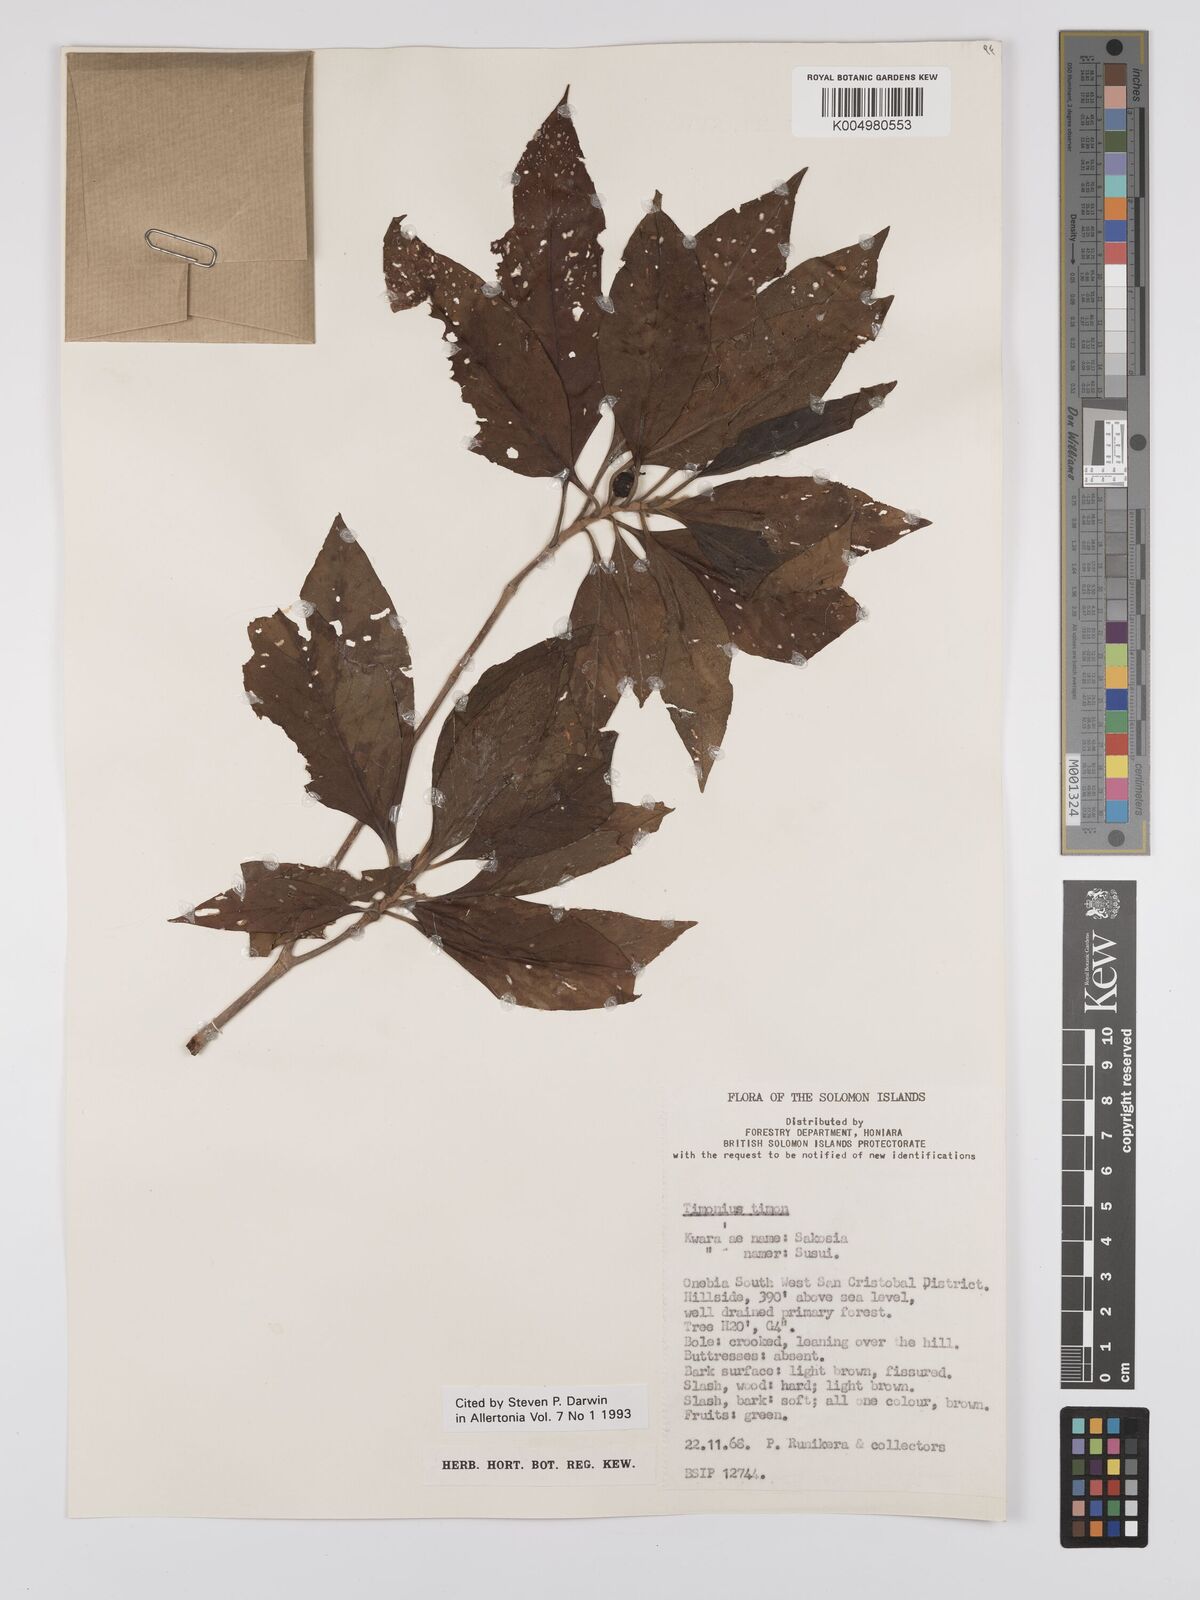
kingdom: Plantae
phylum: Tracheophyta
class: Magnoliopsida
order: Gentianales
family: Rubiaceae
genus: Timonius
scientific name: Timonius timon
